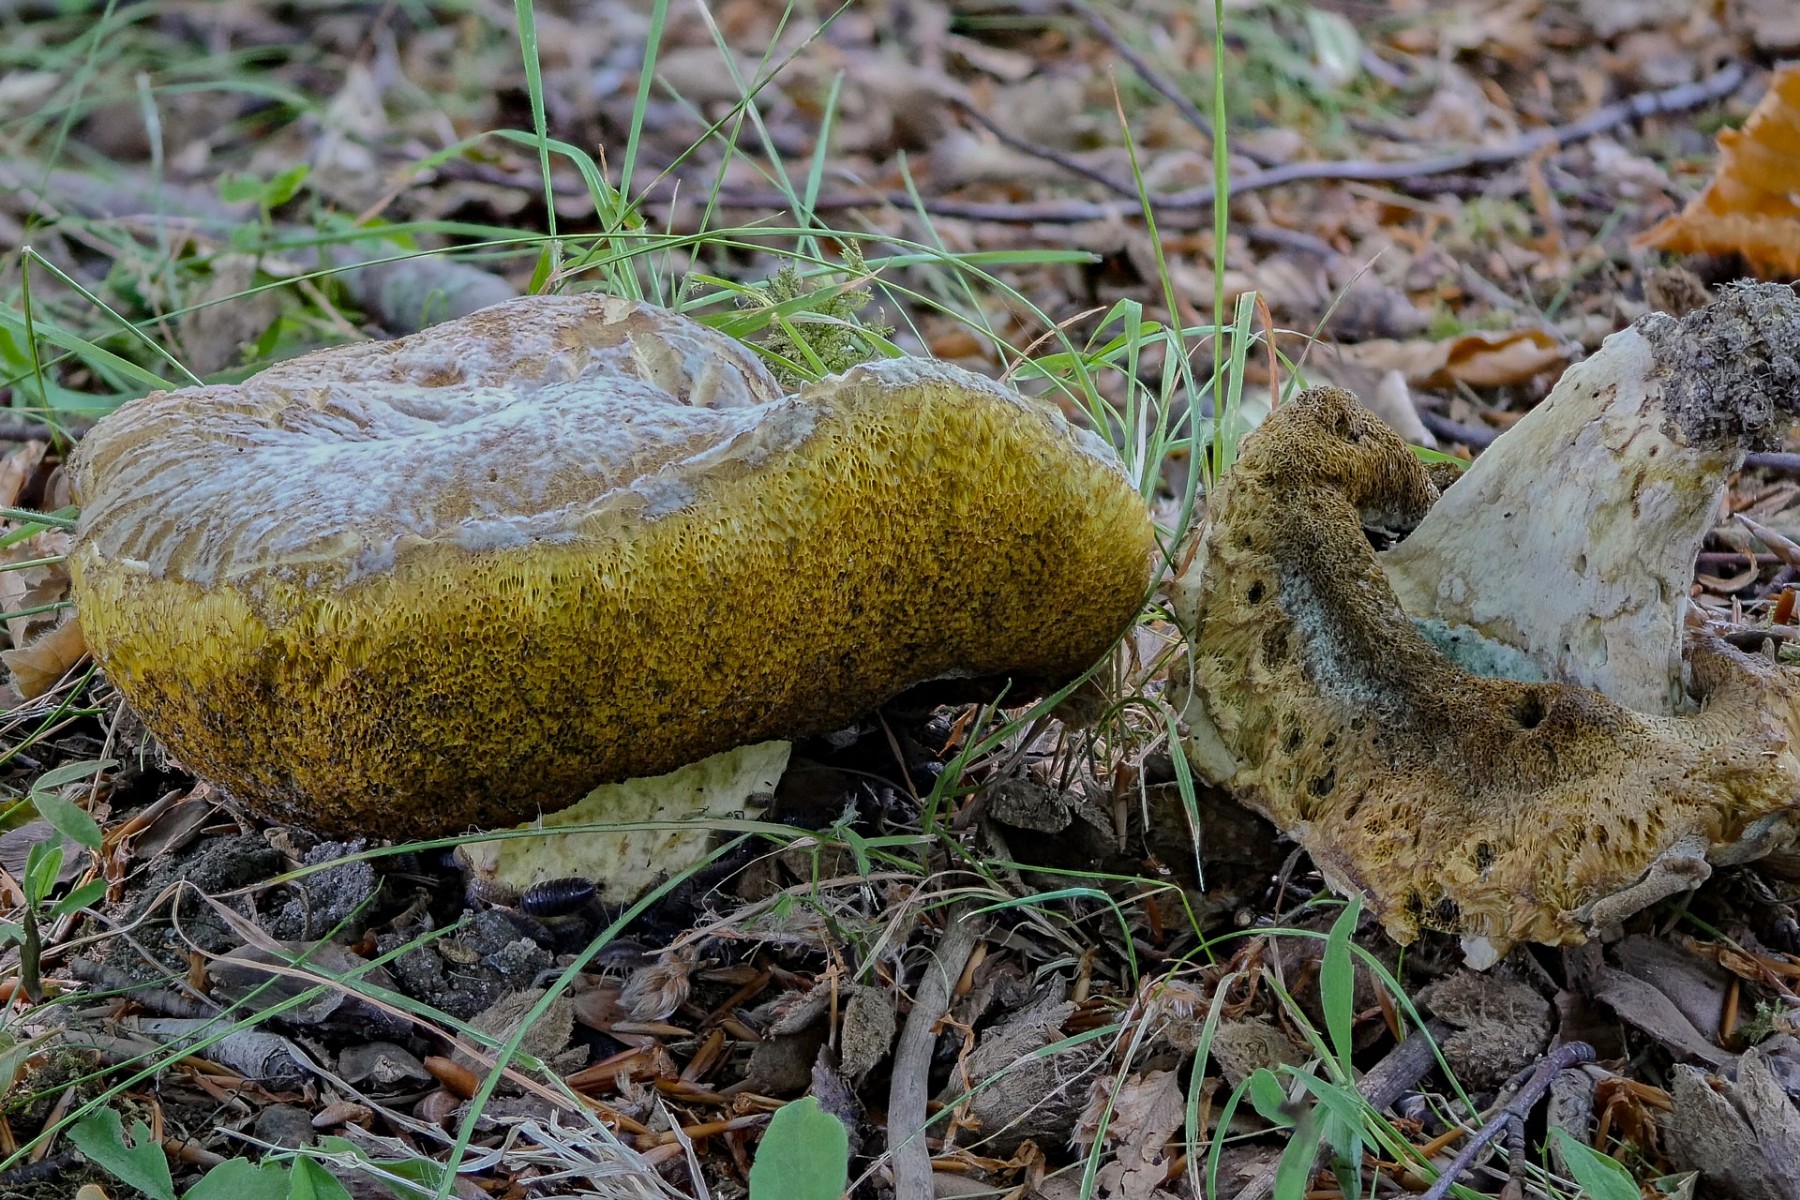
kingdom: Fungi
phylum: Basidiomycota
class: Agaricomycetes
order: Boletales
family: Boletaceae
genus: Butyriboletus
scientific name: Butyriboletus appendiculatus
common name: tenstokket rørhat
